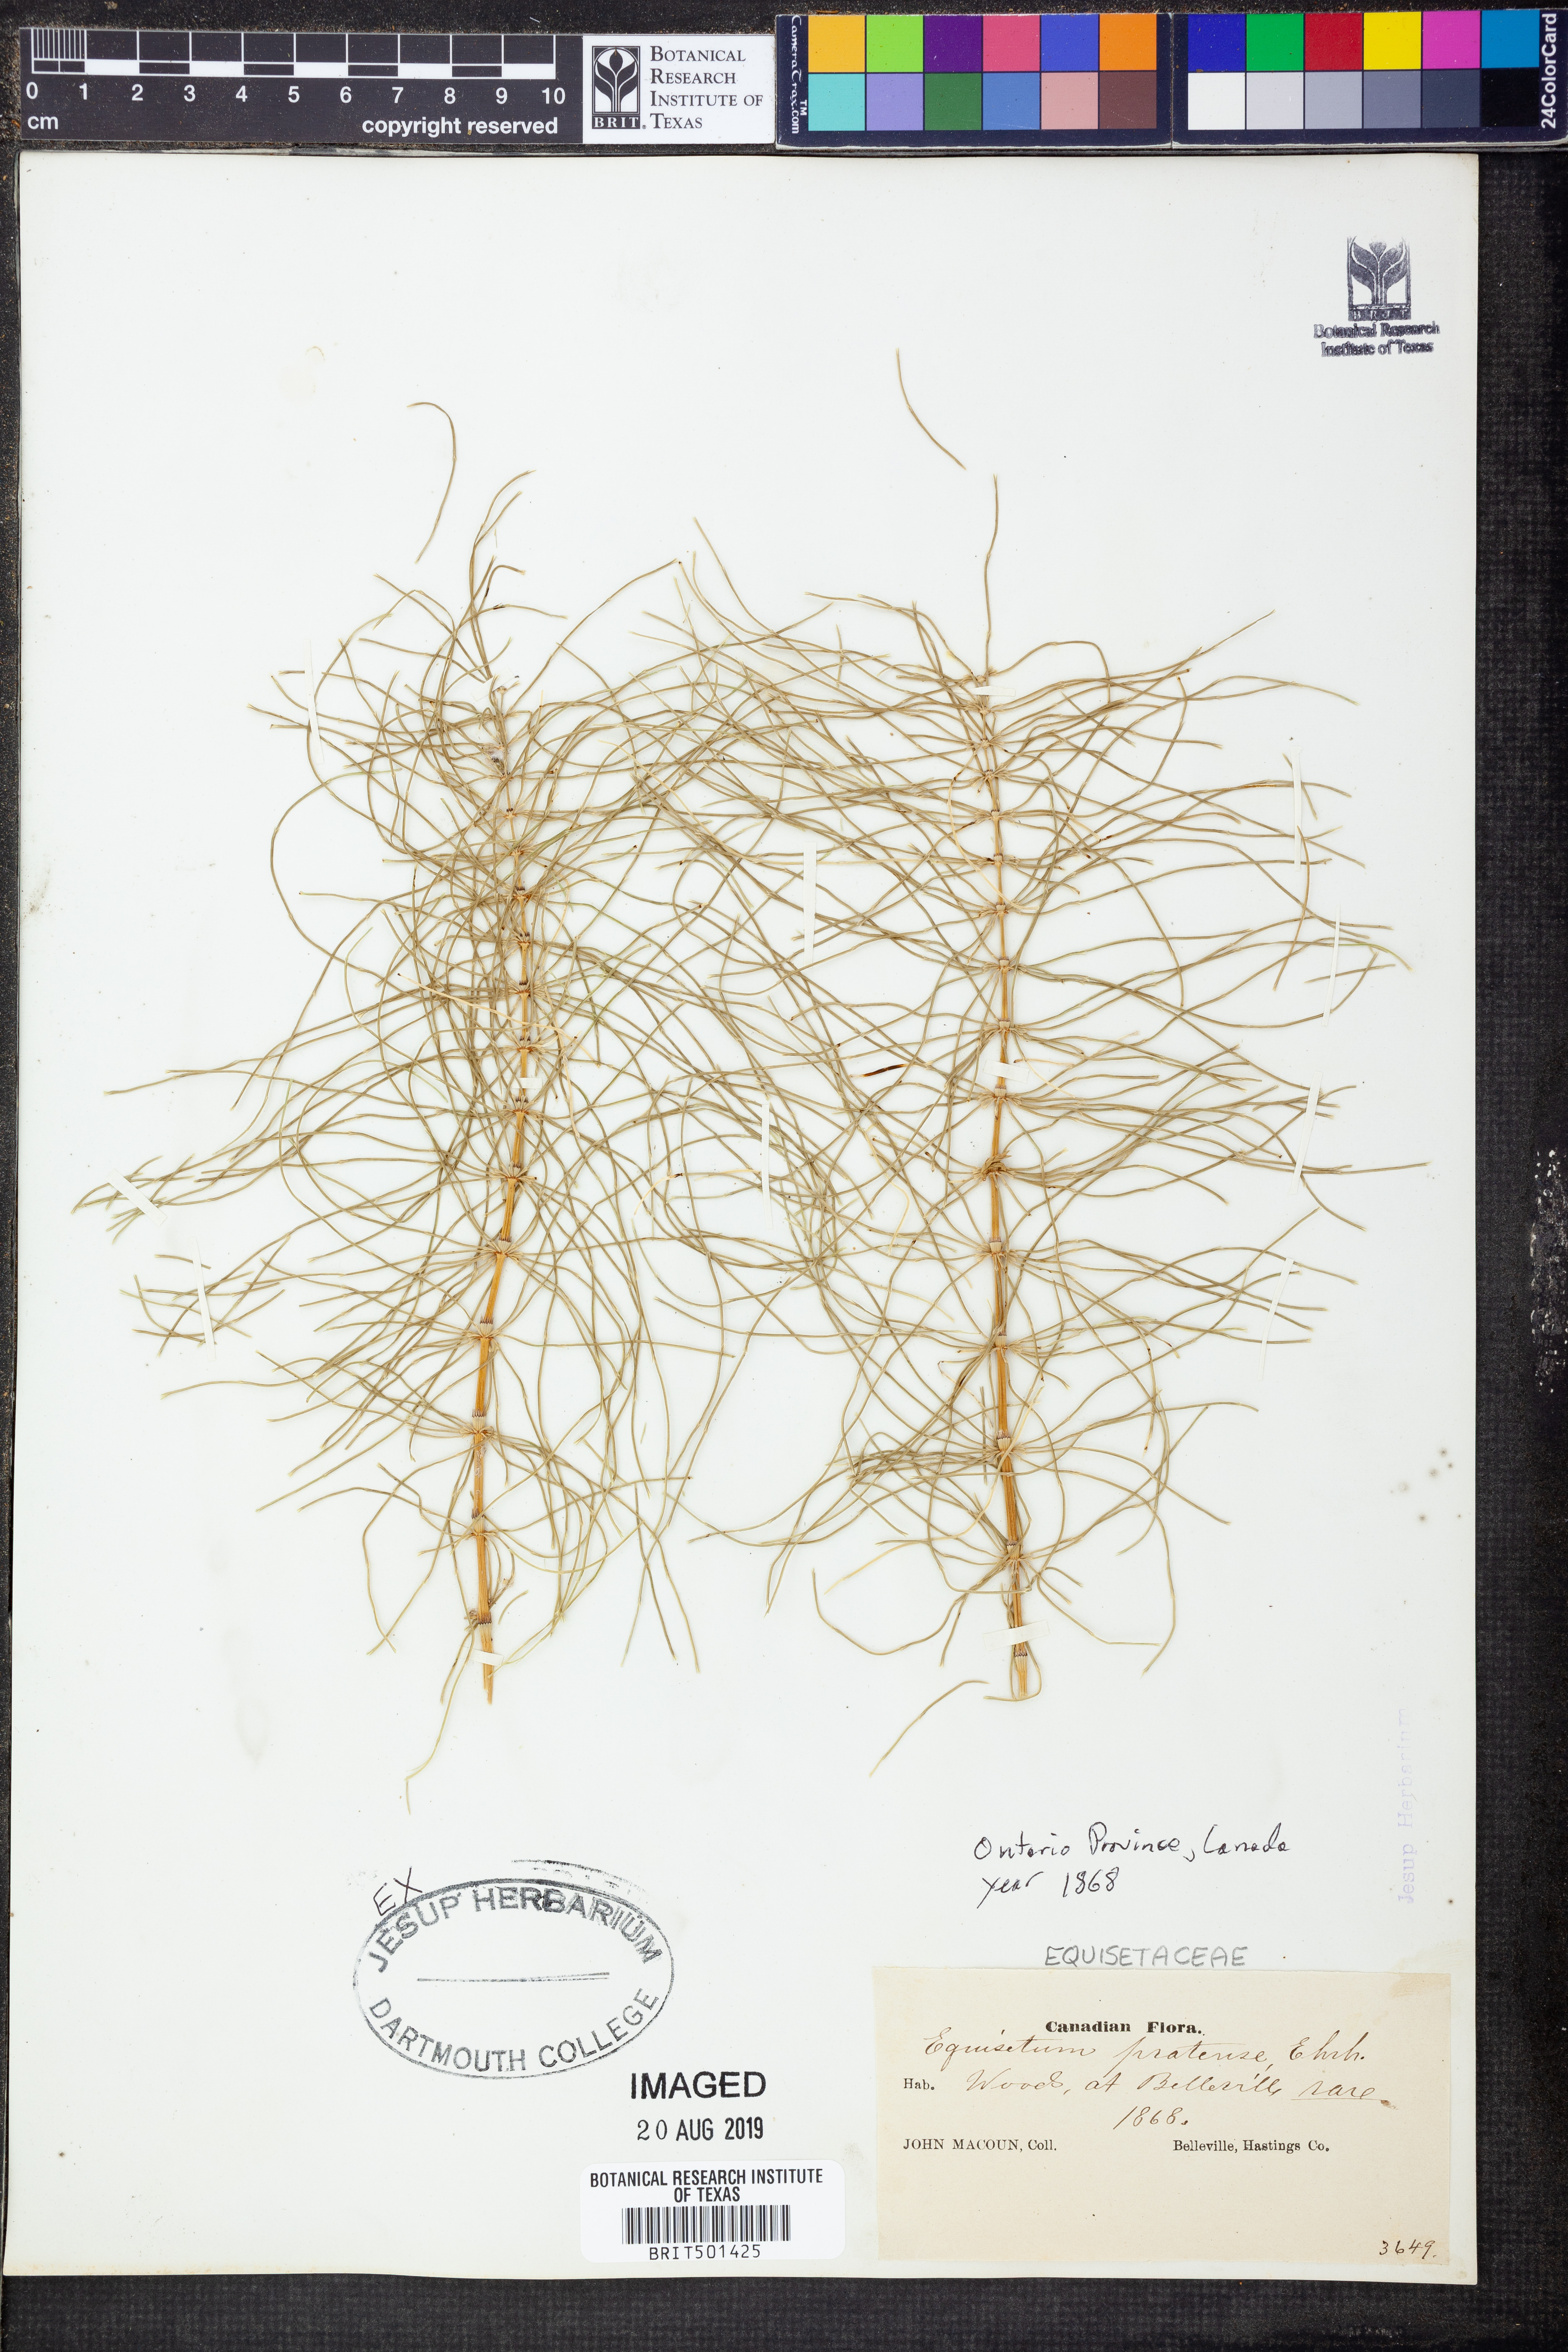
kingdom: Plantae
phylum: Tracheophyta
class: Polypodiopsida
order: Equisetales
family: Equisetaceae
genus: Equisetum
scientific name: Equisetum pratense
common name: Meadow horsetail
